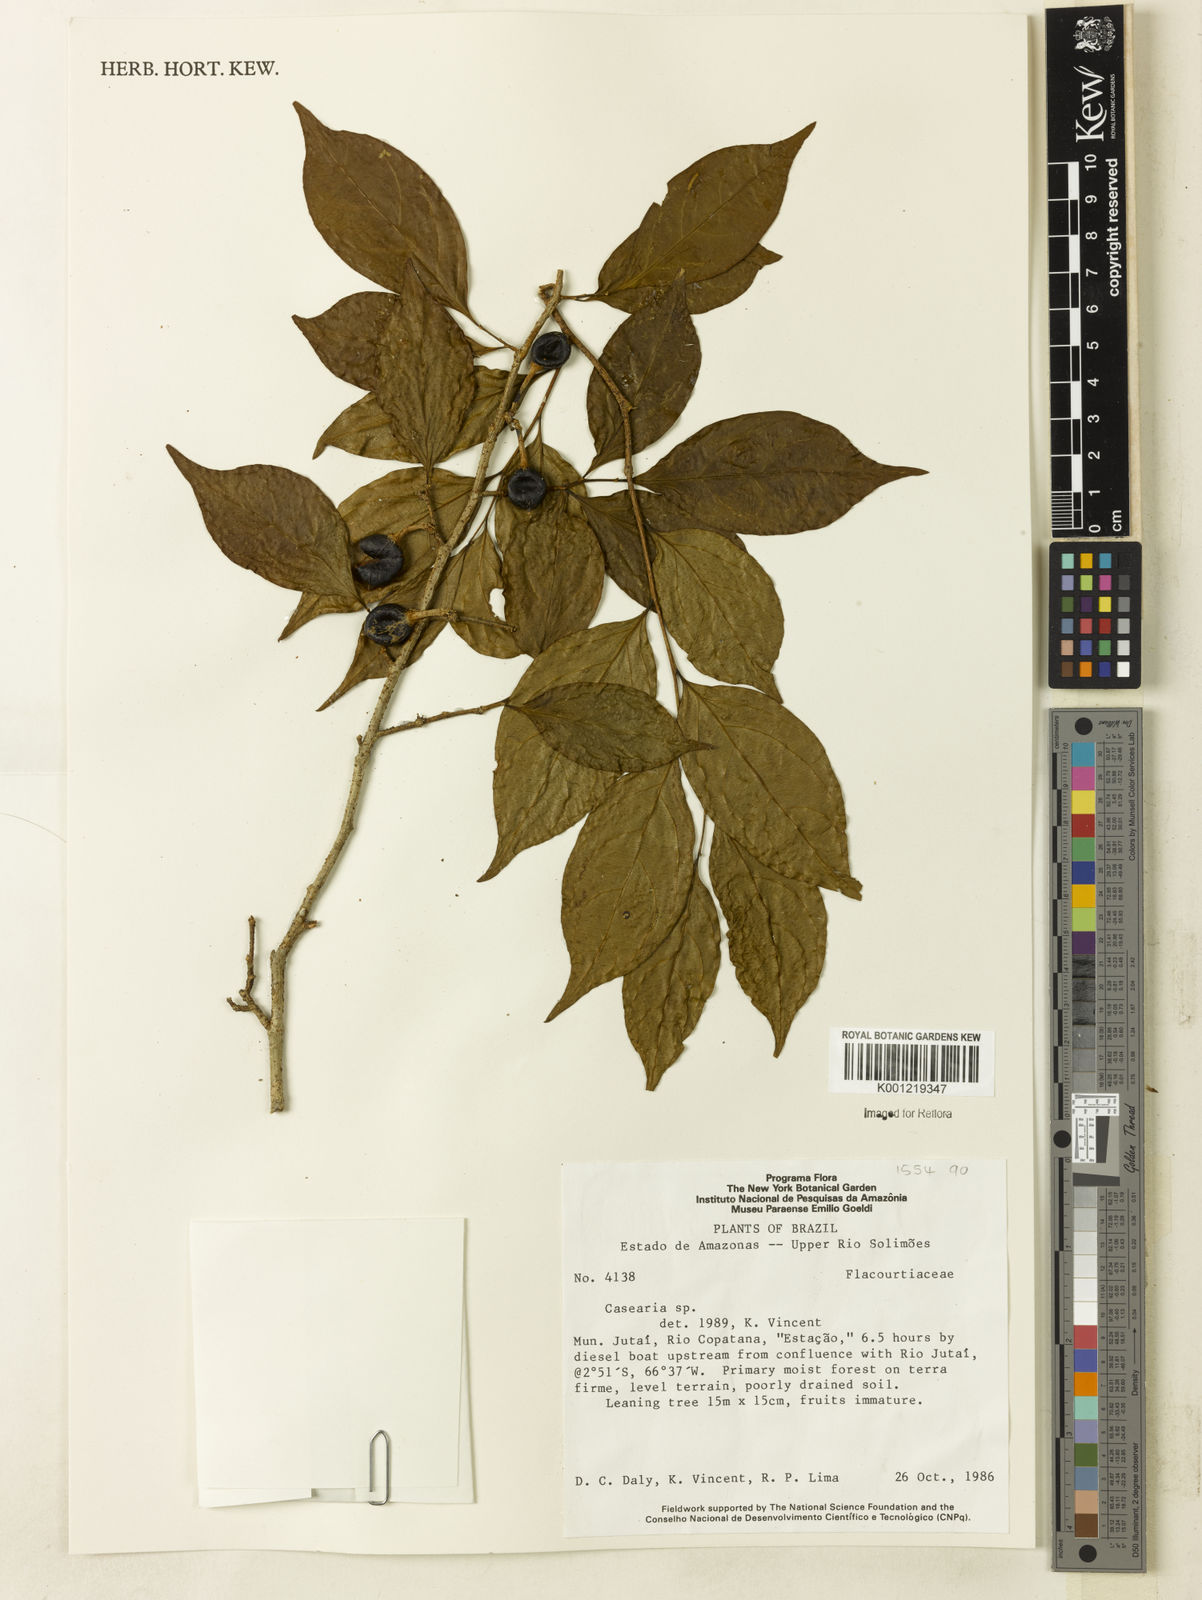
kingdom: Plantae
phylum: Tracheophyta
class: Magnoliopsida
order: Malpighiales
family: Salicaceae
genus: Casearia
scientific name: Casearia
